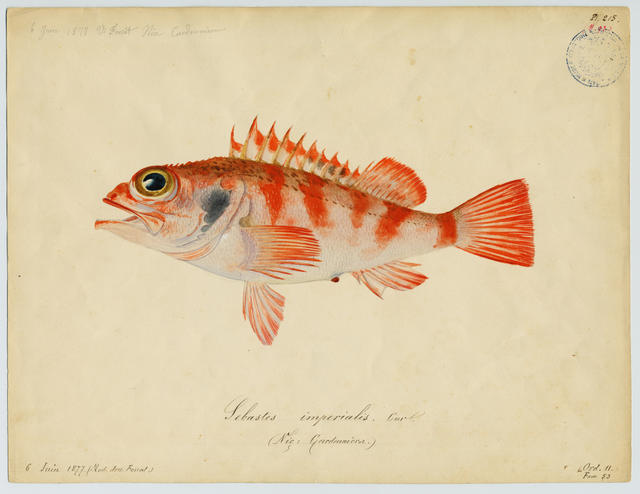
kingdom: Animalia
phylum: Chordata
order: Scorpaeniformes
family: Sebastidae
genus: Helicolenus
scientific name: Helicolenus dactylopterus
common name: Blackbelly rosefish
